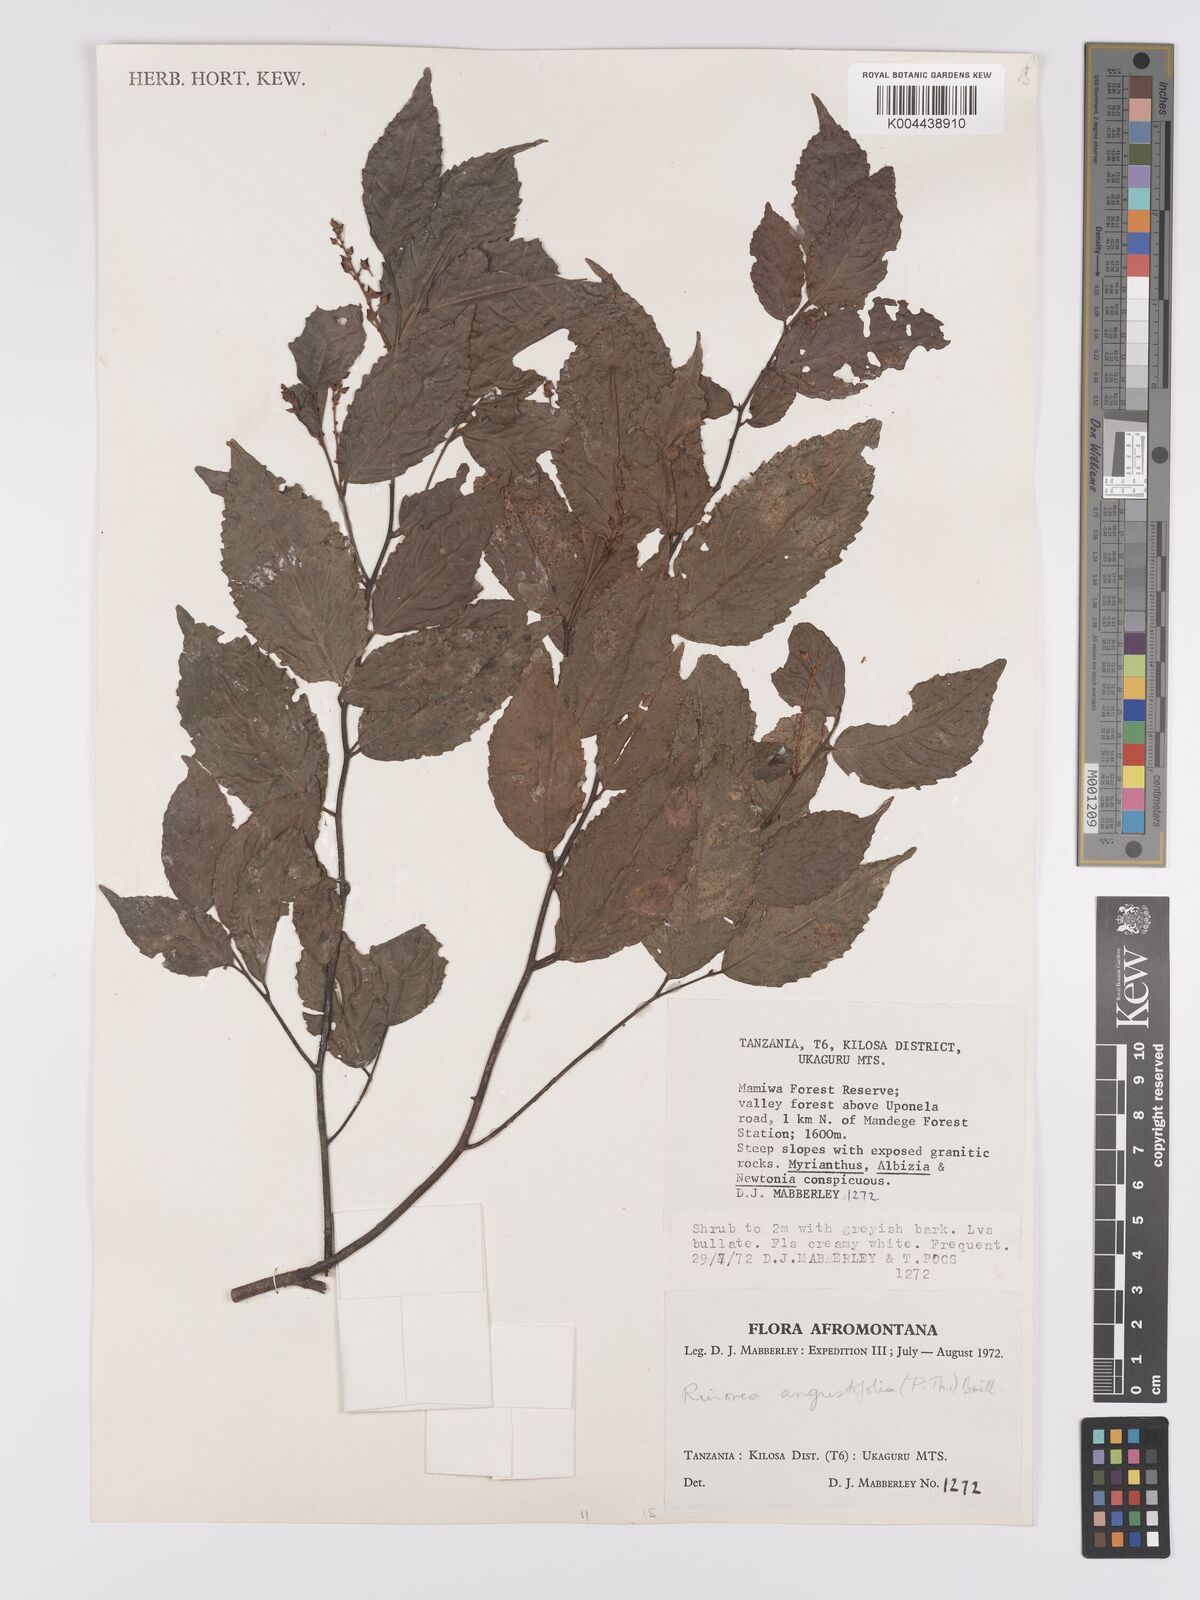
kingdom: Plantae
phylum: Tracheophyta
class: Magnoliopsida
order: Malpighiales
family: Violaceae
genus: Rinorea
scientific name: Rinorea angustifolia
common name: White violet-bush
